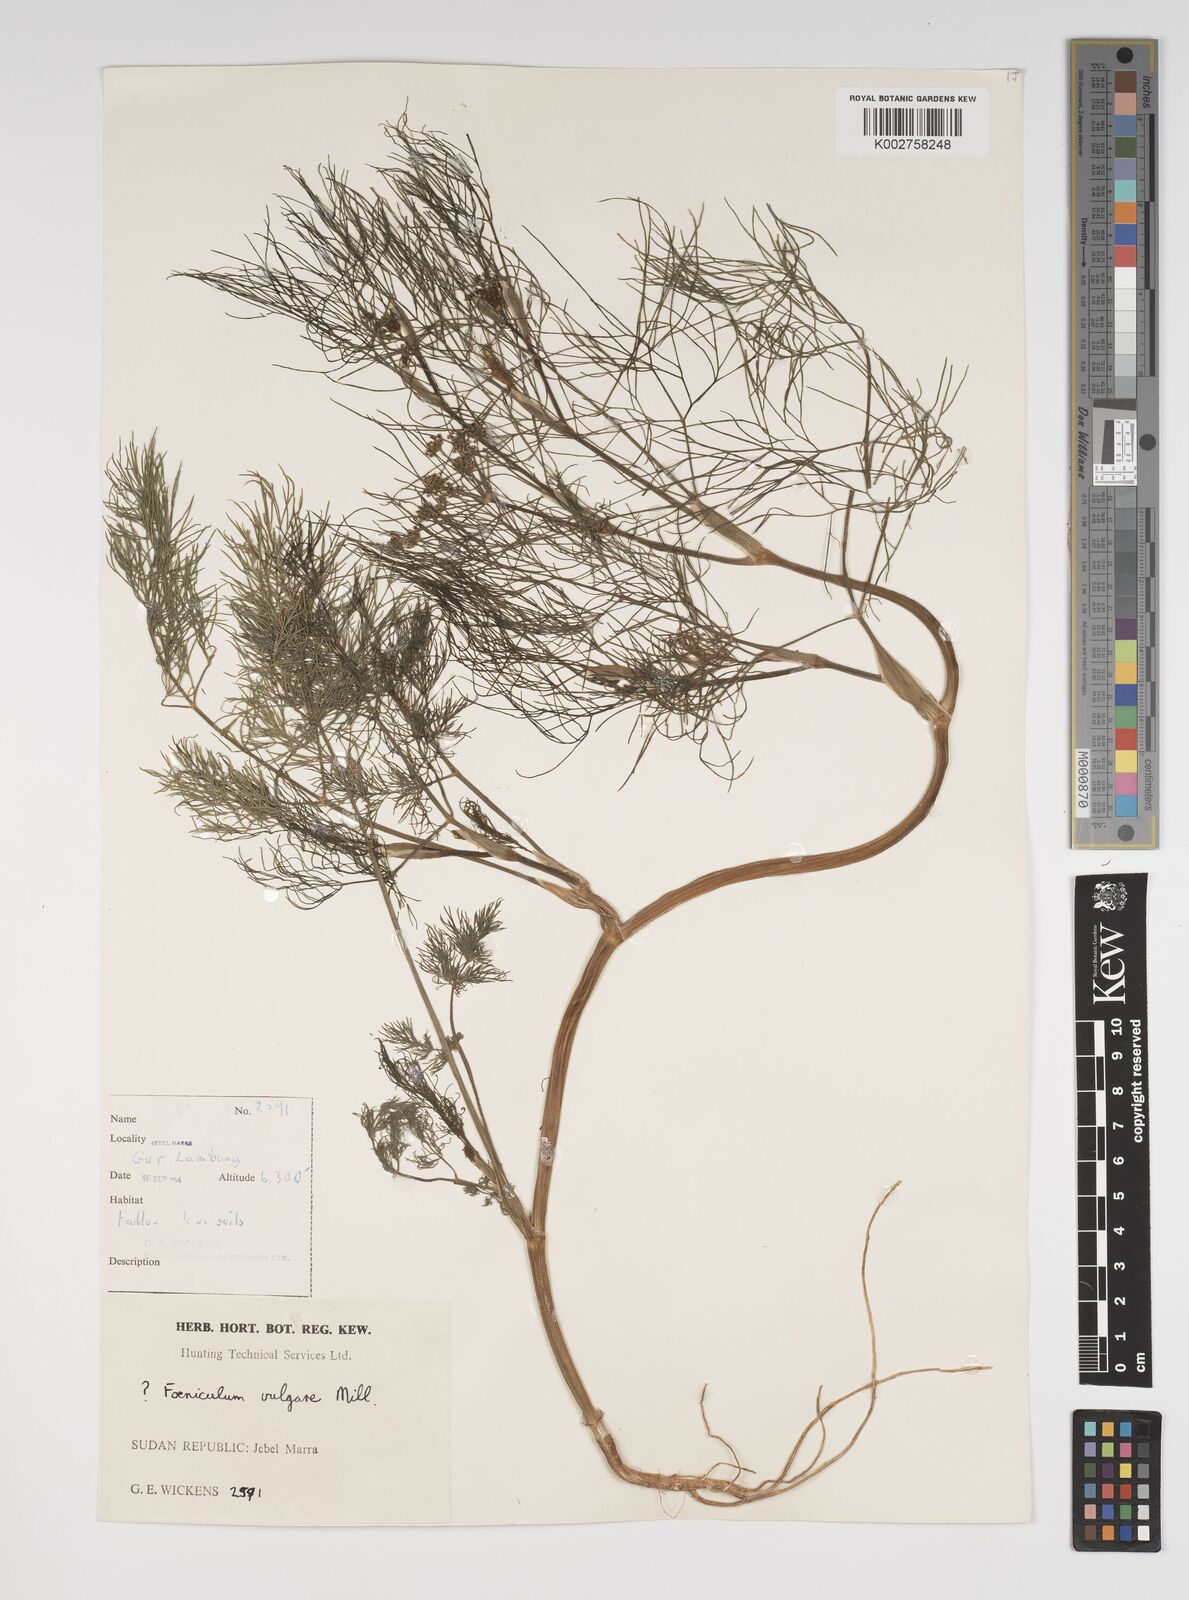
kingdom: Plantae
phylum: Tracheophyta
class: Magnoliopsida
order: Apiales
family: Apiaceae
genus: Foeniculum
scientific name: Foeniculum vulgare
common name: Fennel
